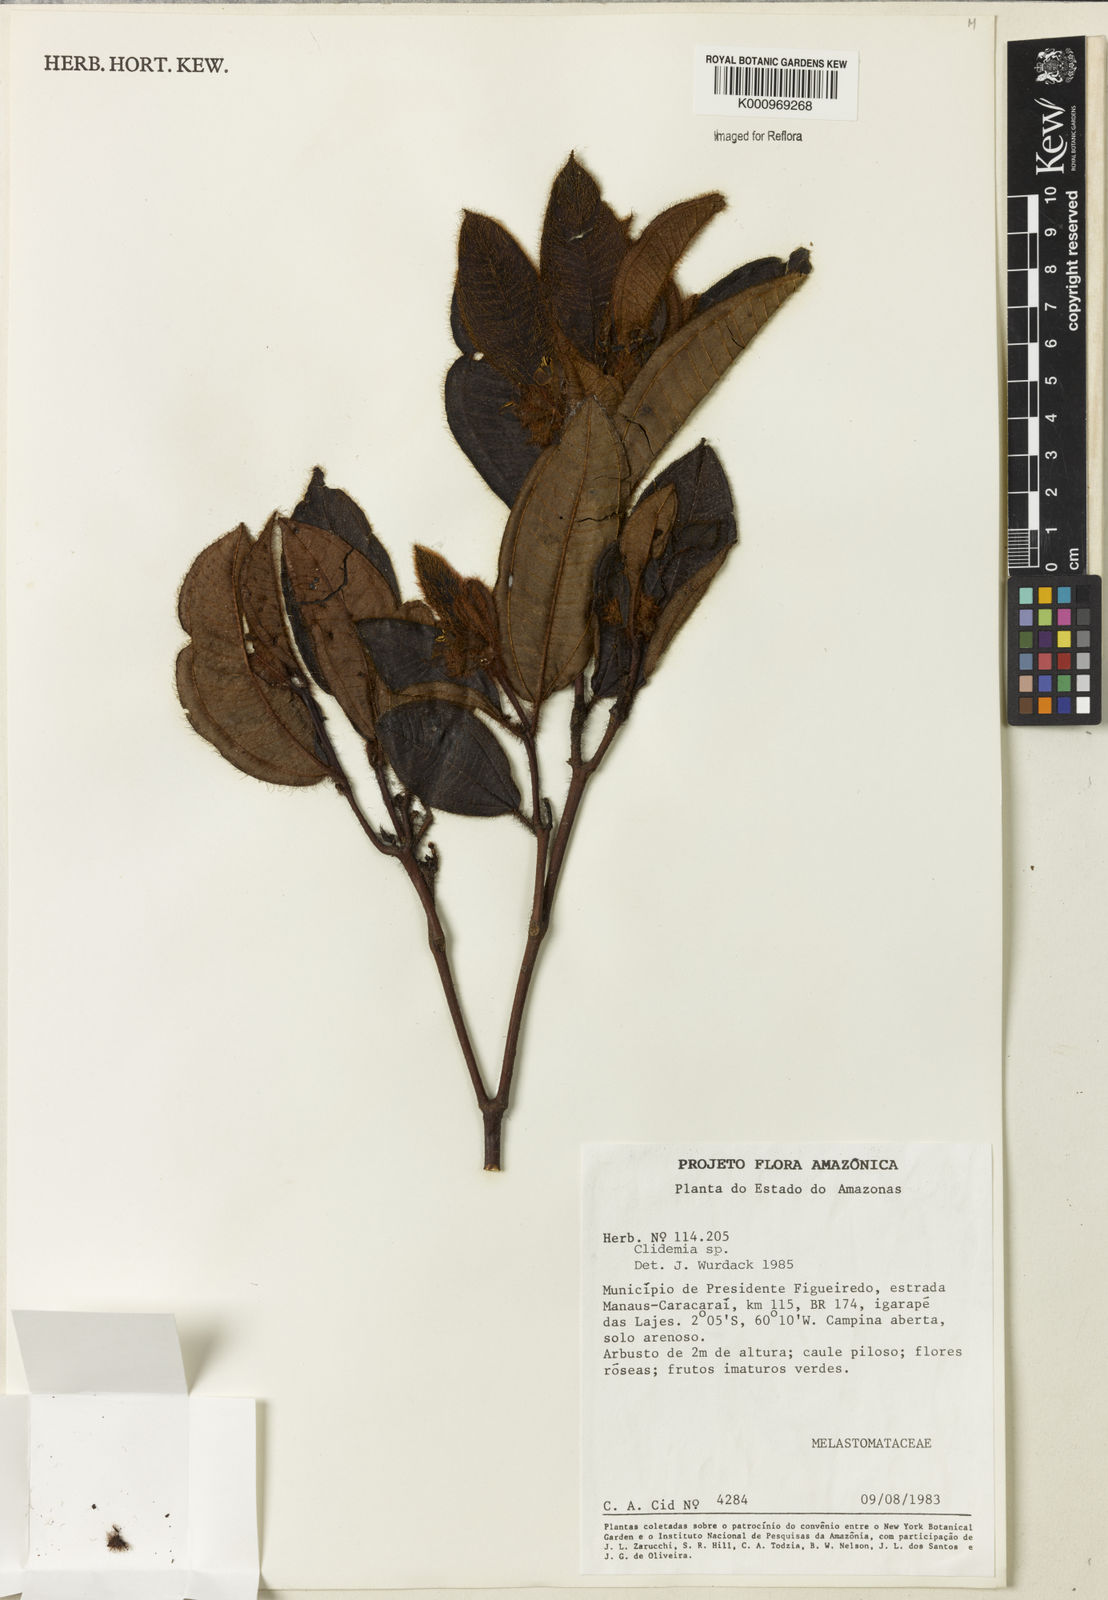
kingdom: Plantae
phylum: Tracheophyta
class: Magnoliopsida
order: Myrtales
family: Melastomataceae
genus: Miconia
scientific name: Miconia
